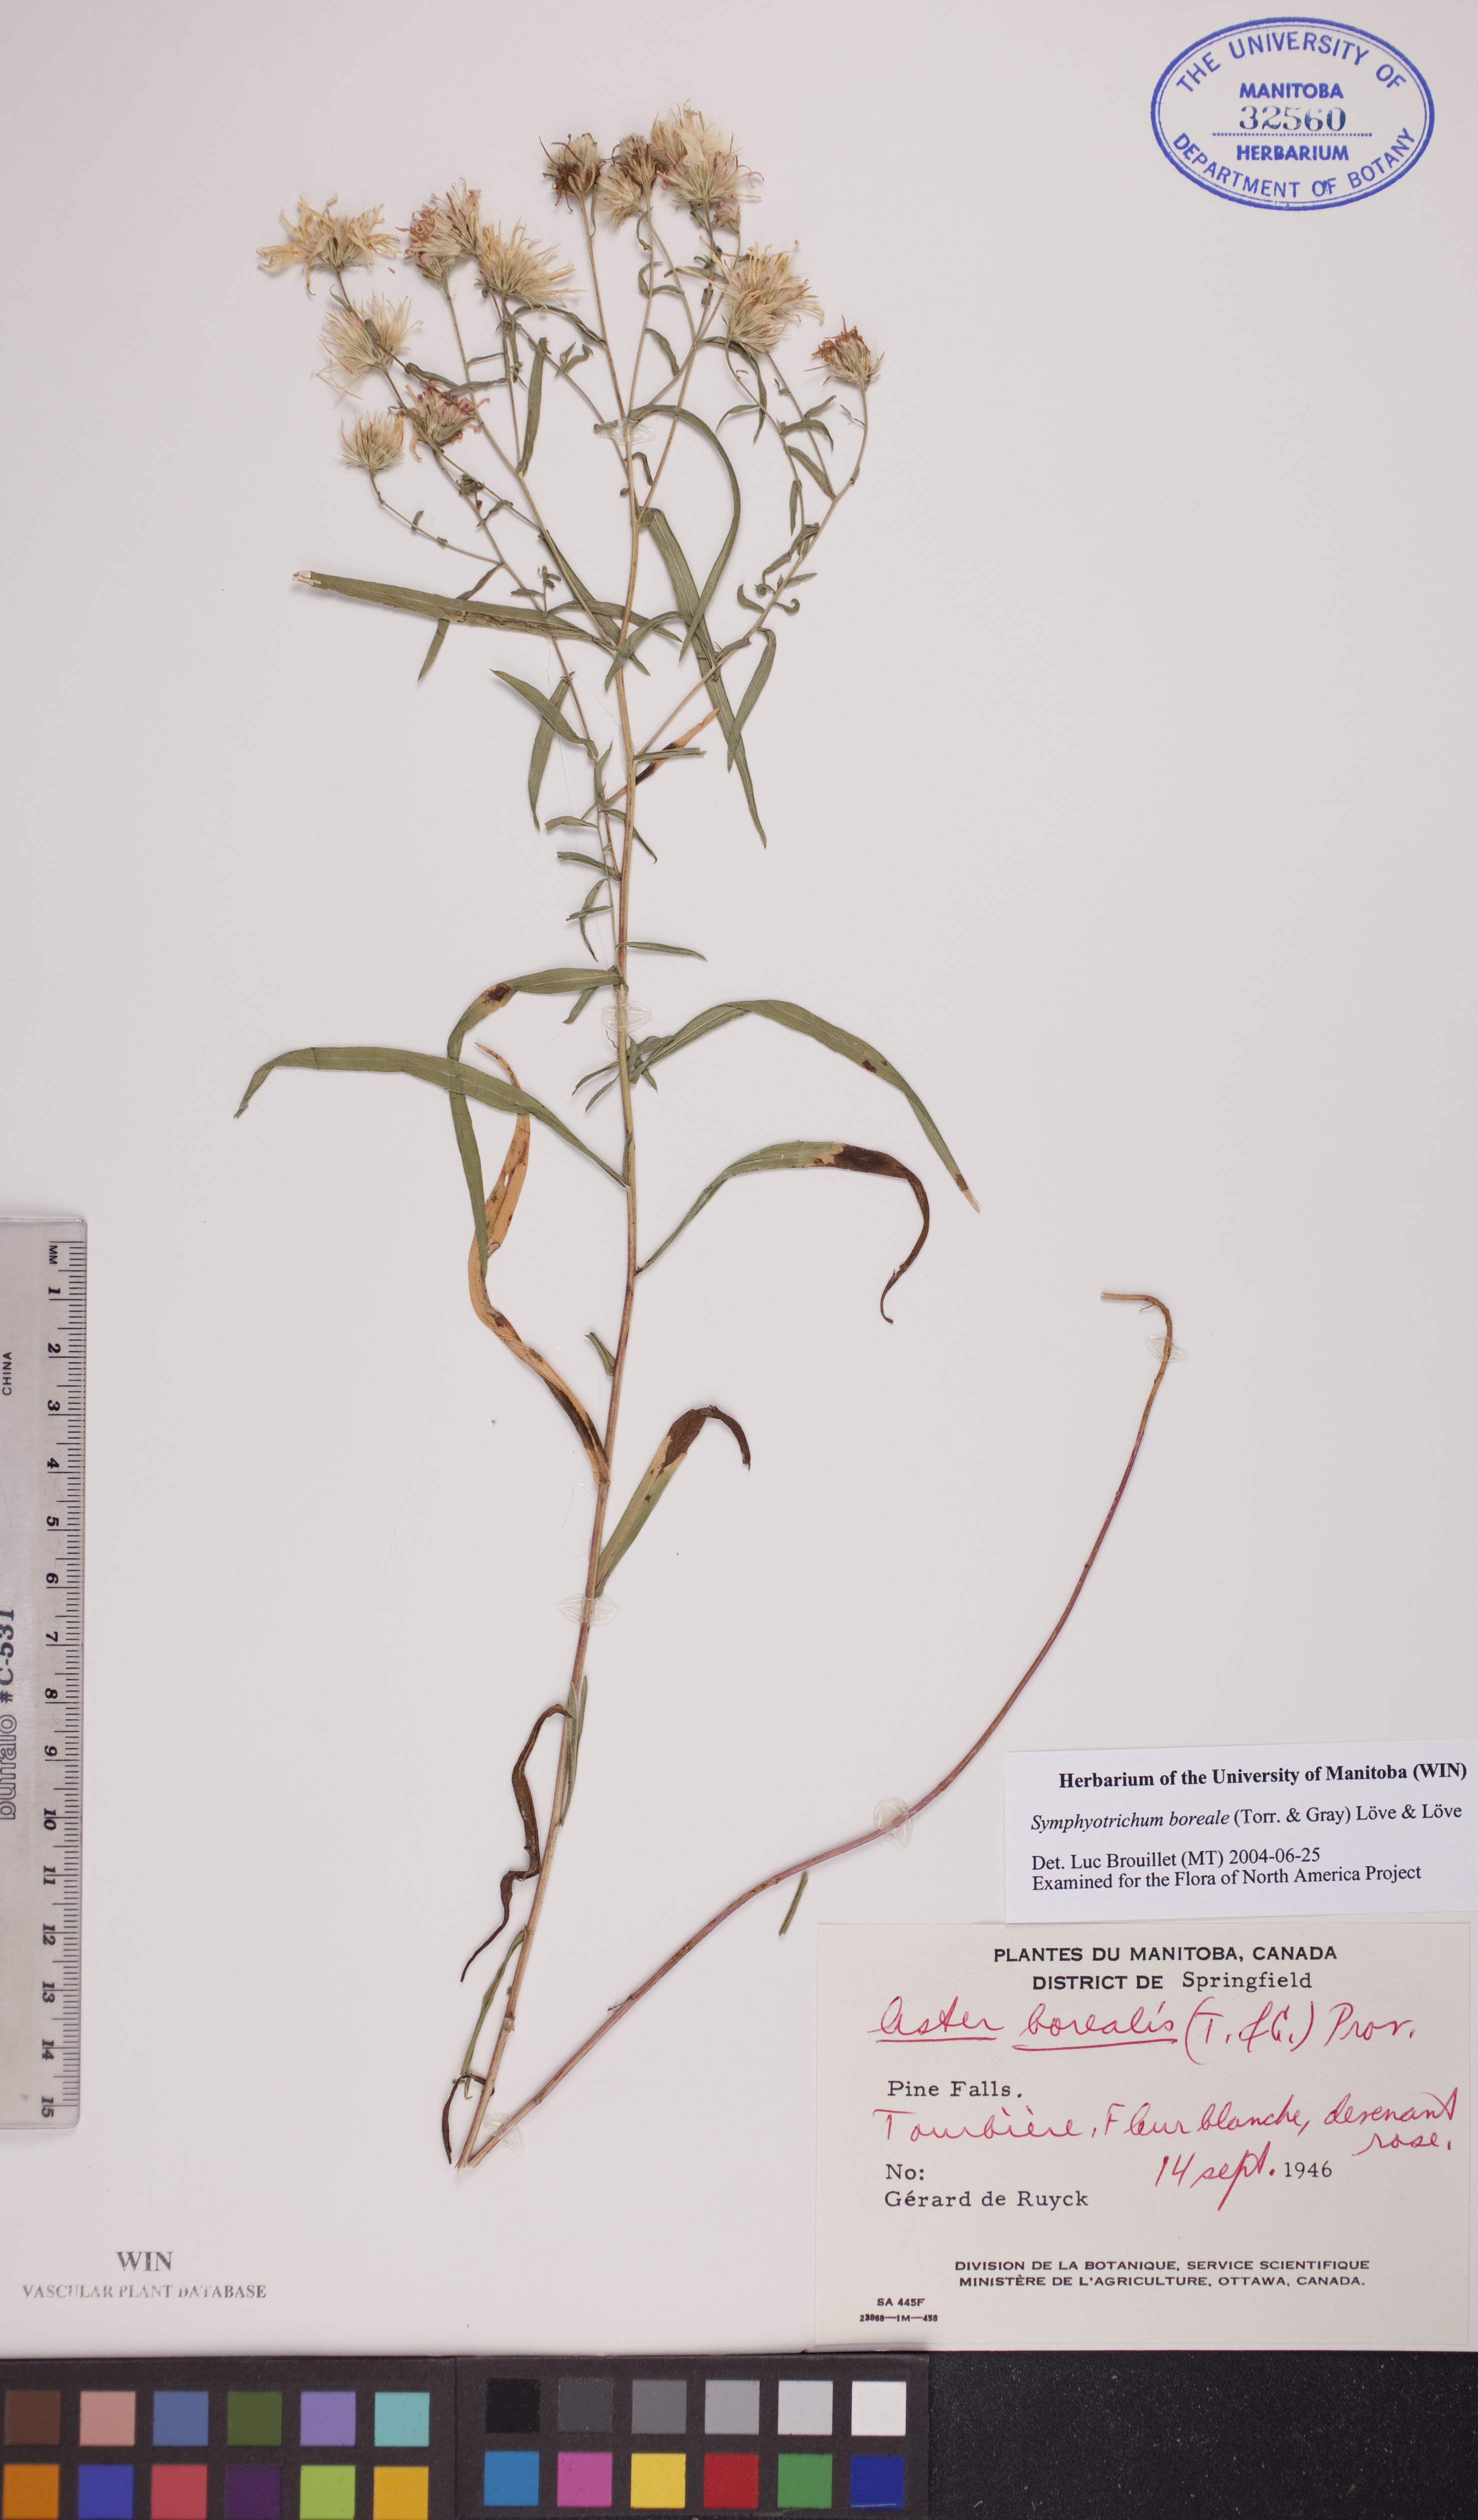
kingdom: Plantae
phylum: Tracheophyta
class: Magnoliopsida
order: Asterales
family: Asteraceae
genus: Symphyotrichum
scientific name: Symphyotrichum boreale
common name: Northern bog aster
